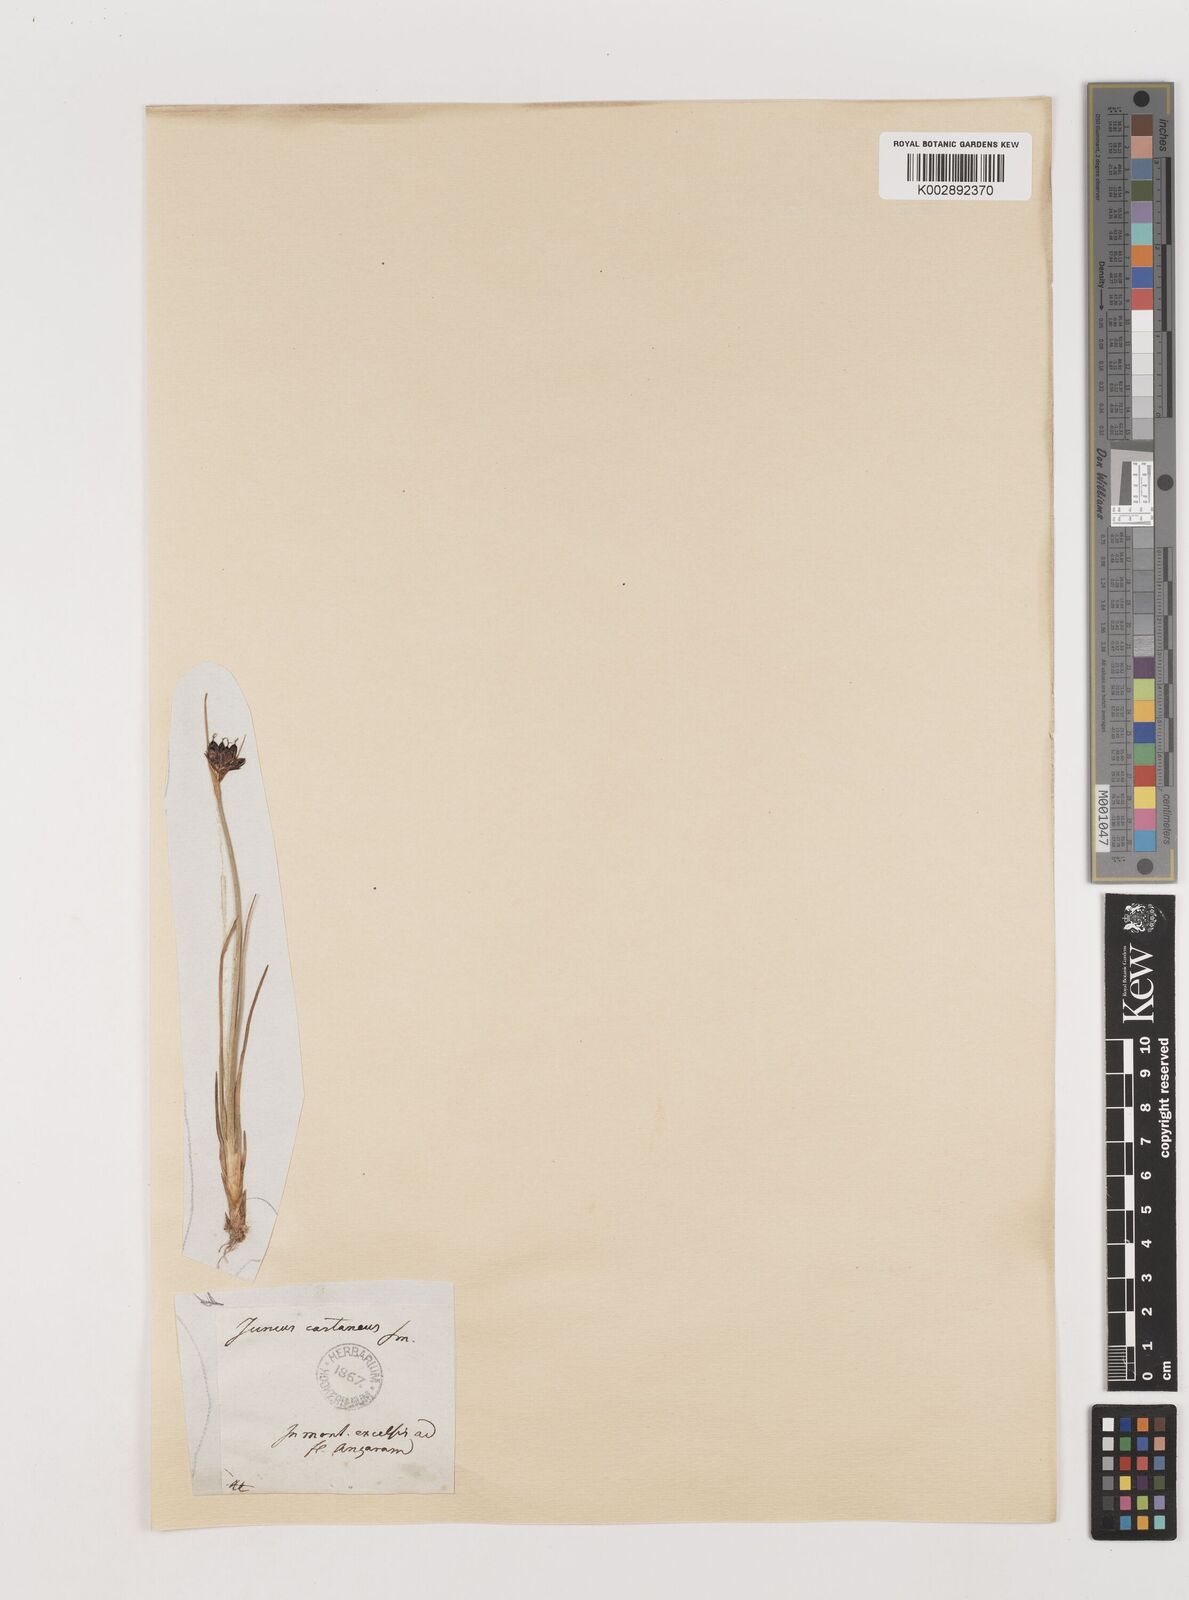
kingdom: Plantae
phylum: Tracheophyta
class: Liliopsida
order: Poales
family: Juncaceae
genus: Juncus
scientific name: Juncus castaneus
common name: Chestnut rush
